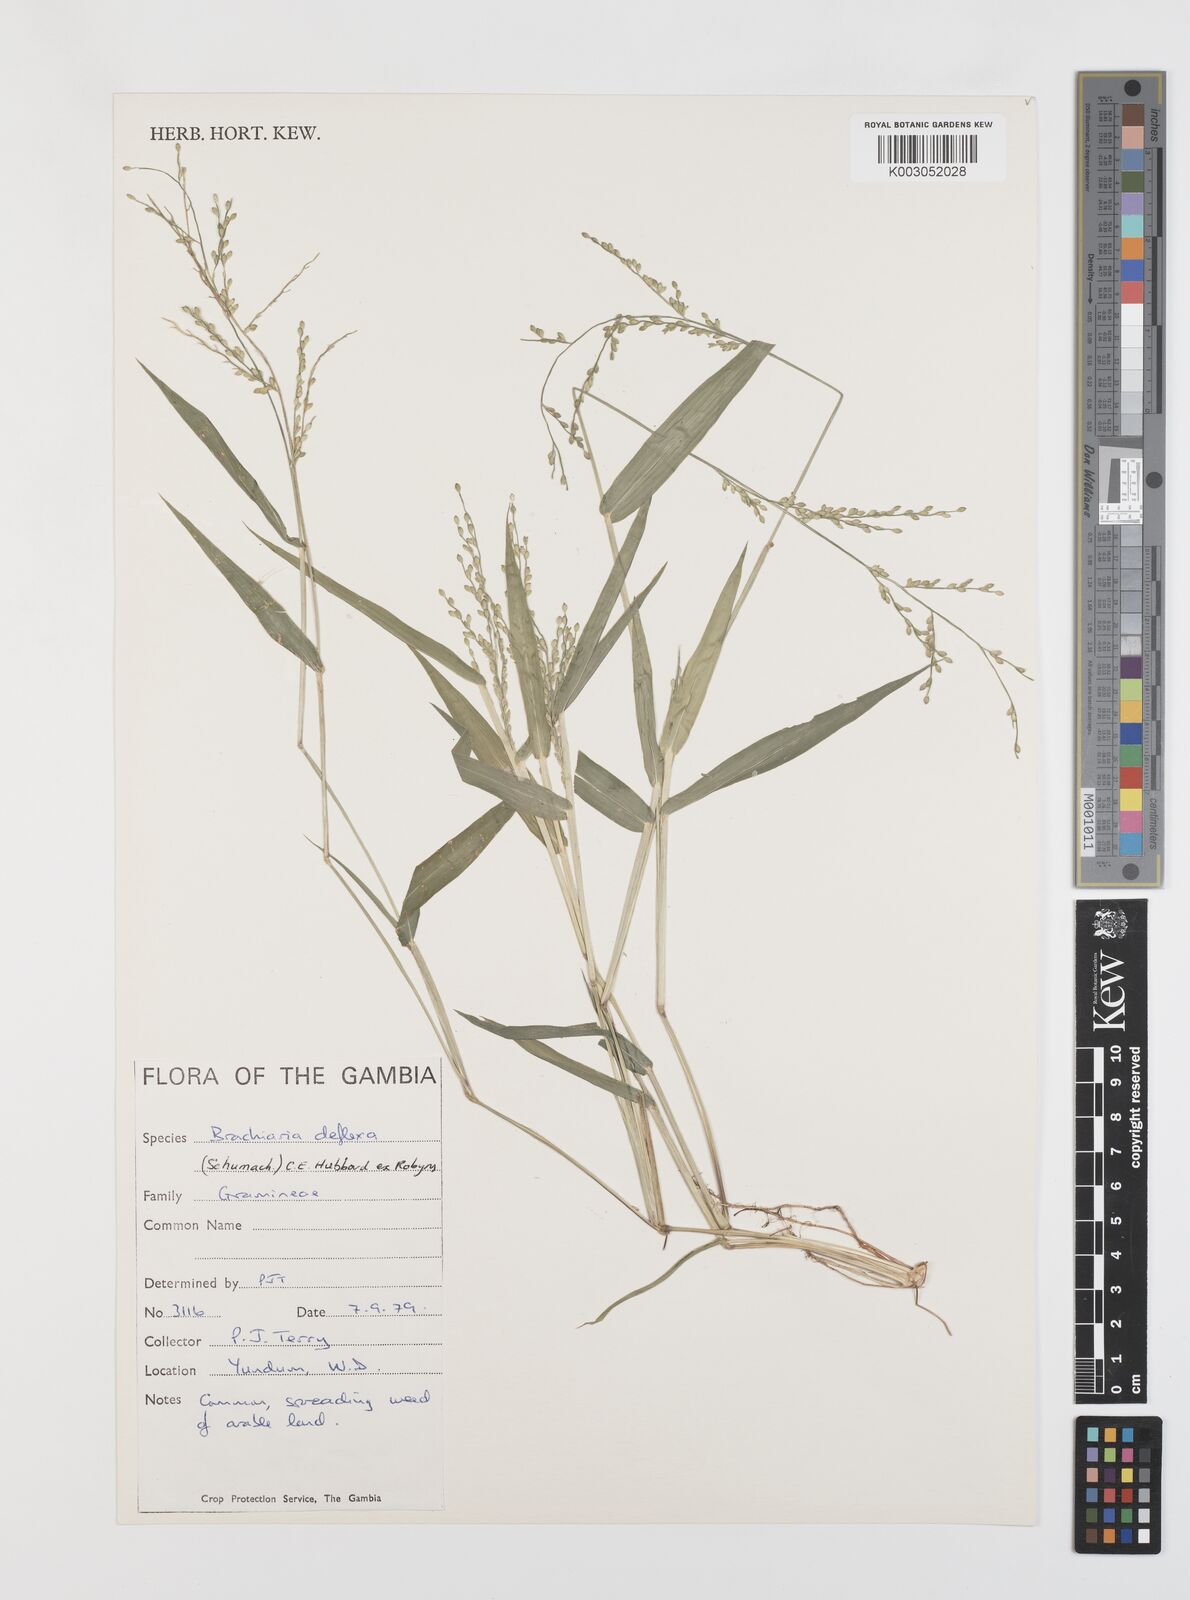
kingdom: Plantae
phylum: Tracheophyta
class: Liliopsida
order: Poales
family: Poaceae
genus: Urochloa
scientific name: Urochloa deflexa
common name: Guinea millet
